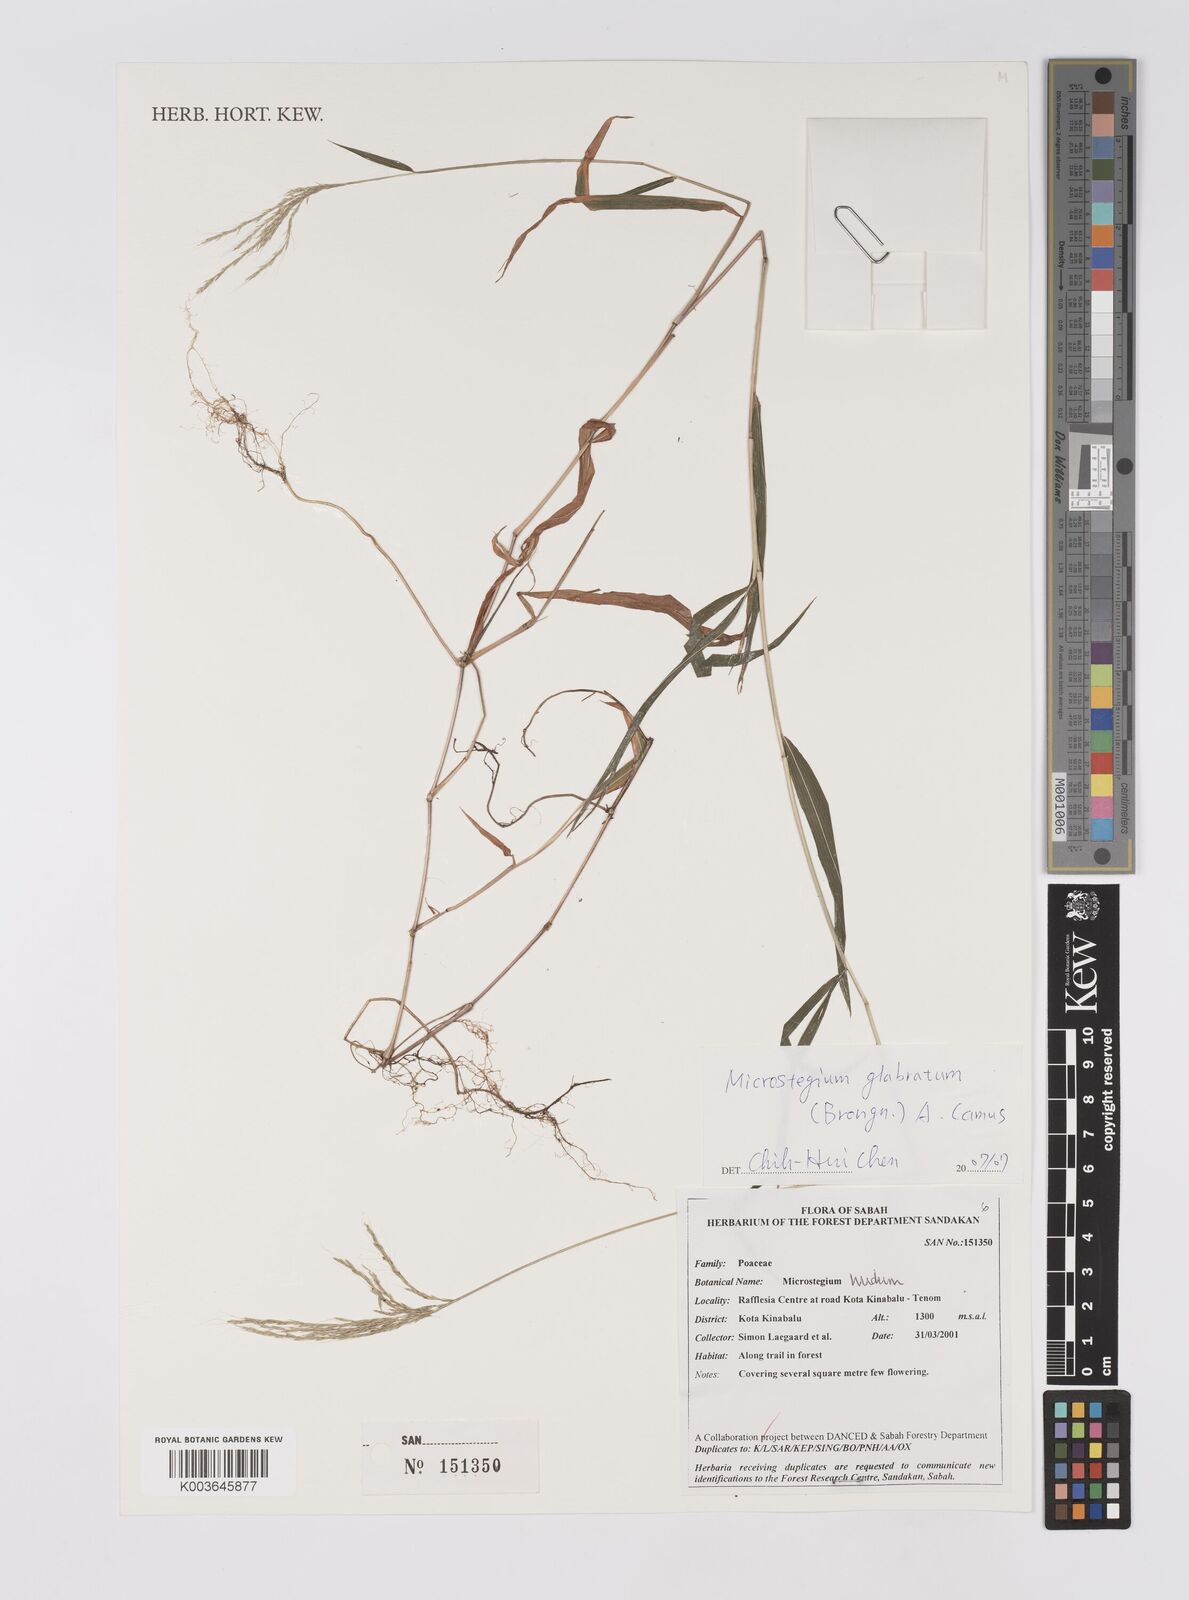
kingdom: Plantae
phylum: Tracheophyta
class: Liliopsida
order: Poales
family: Poaceae
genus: Microstegium
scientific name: Microstegium
